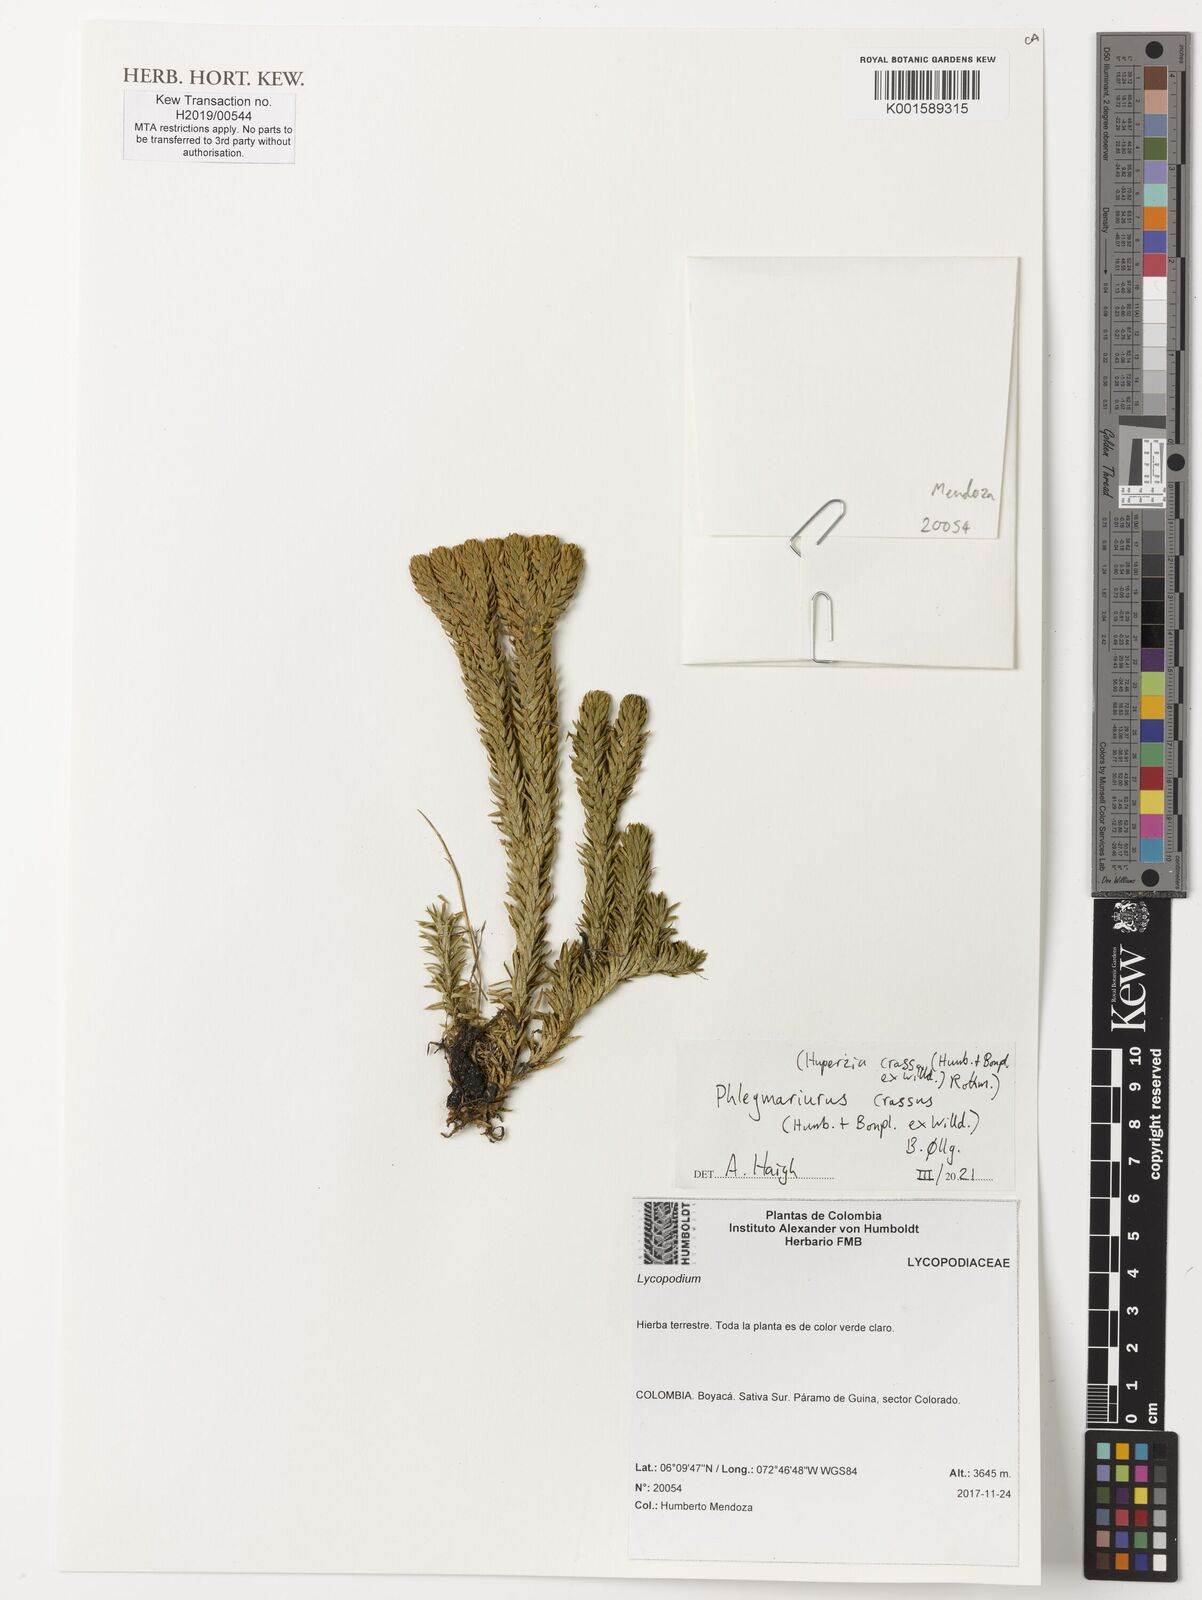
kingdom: Plantae
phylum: Tracheophyta
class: Lycopodiopsida
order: Lycopodiales
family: Lycopodiaceae
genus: Phlegmariurus
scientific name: Phlegmariurus crassus
